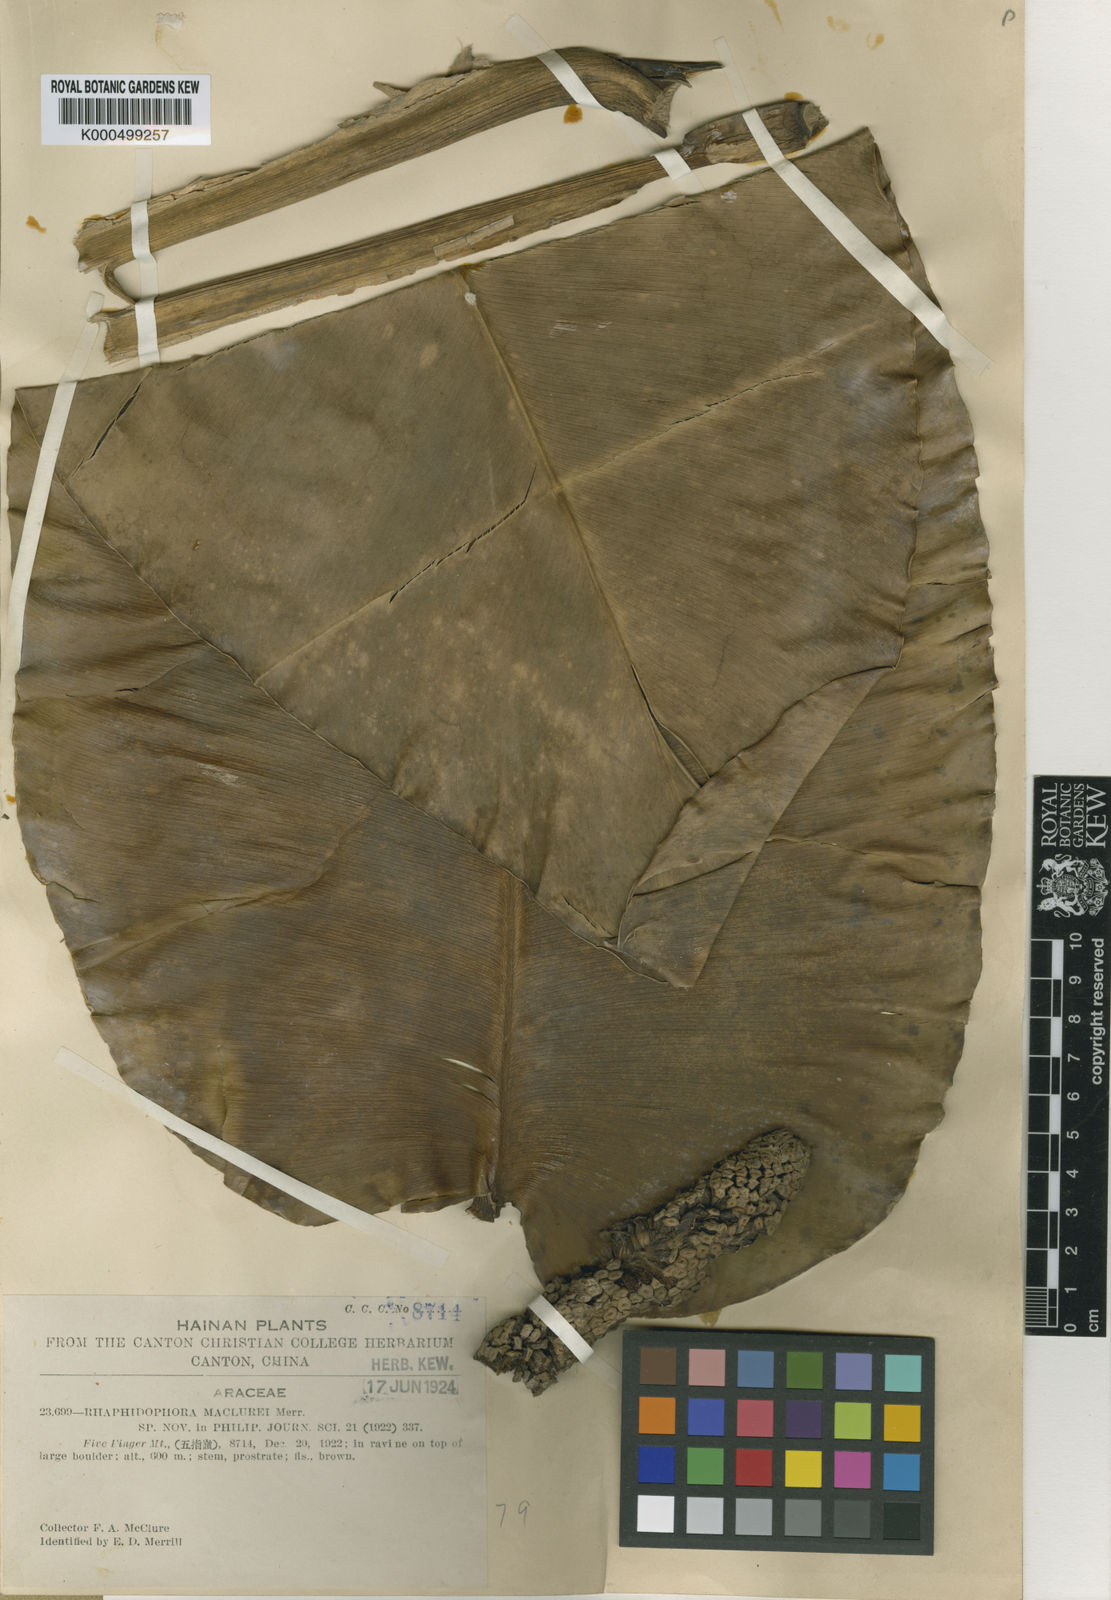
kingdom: Plantae
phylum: Tracheophyta
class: Liliopsida
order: Alismatales
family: Araceae
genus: Scindapsus
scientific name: Scindapsus maclurei
